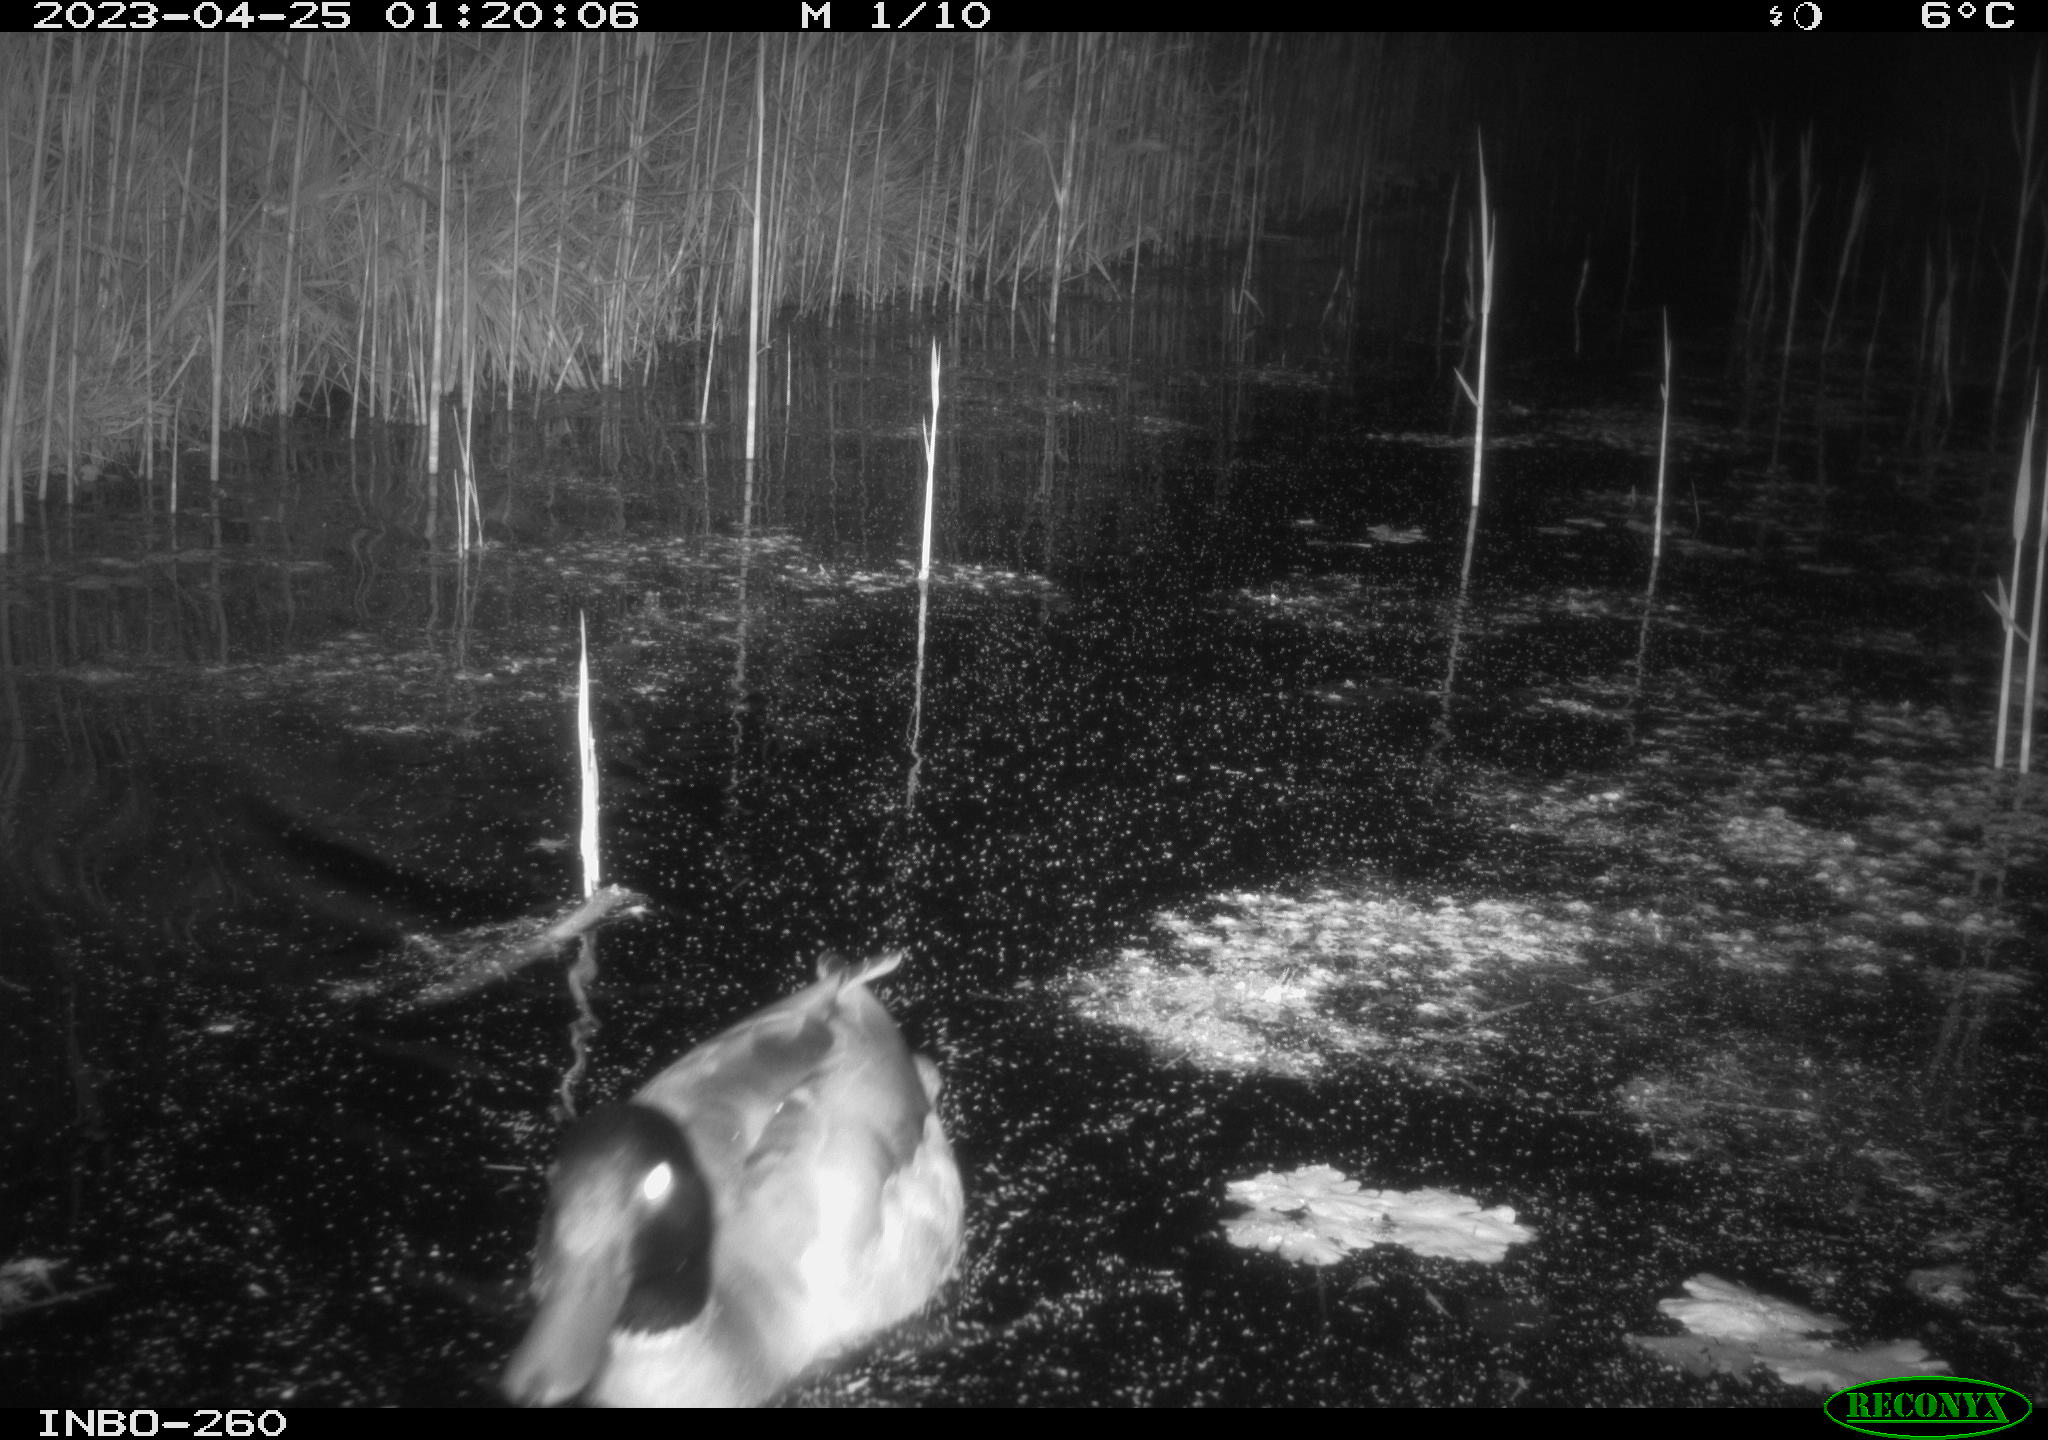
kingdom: Animalia
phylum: Chordata
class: Aves
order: Anseriformes
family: Anatidae
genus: Anas
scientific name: Anas
